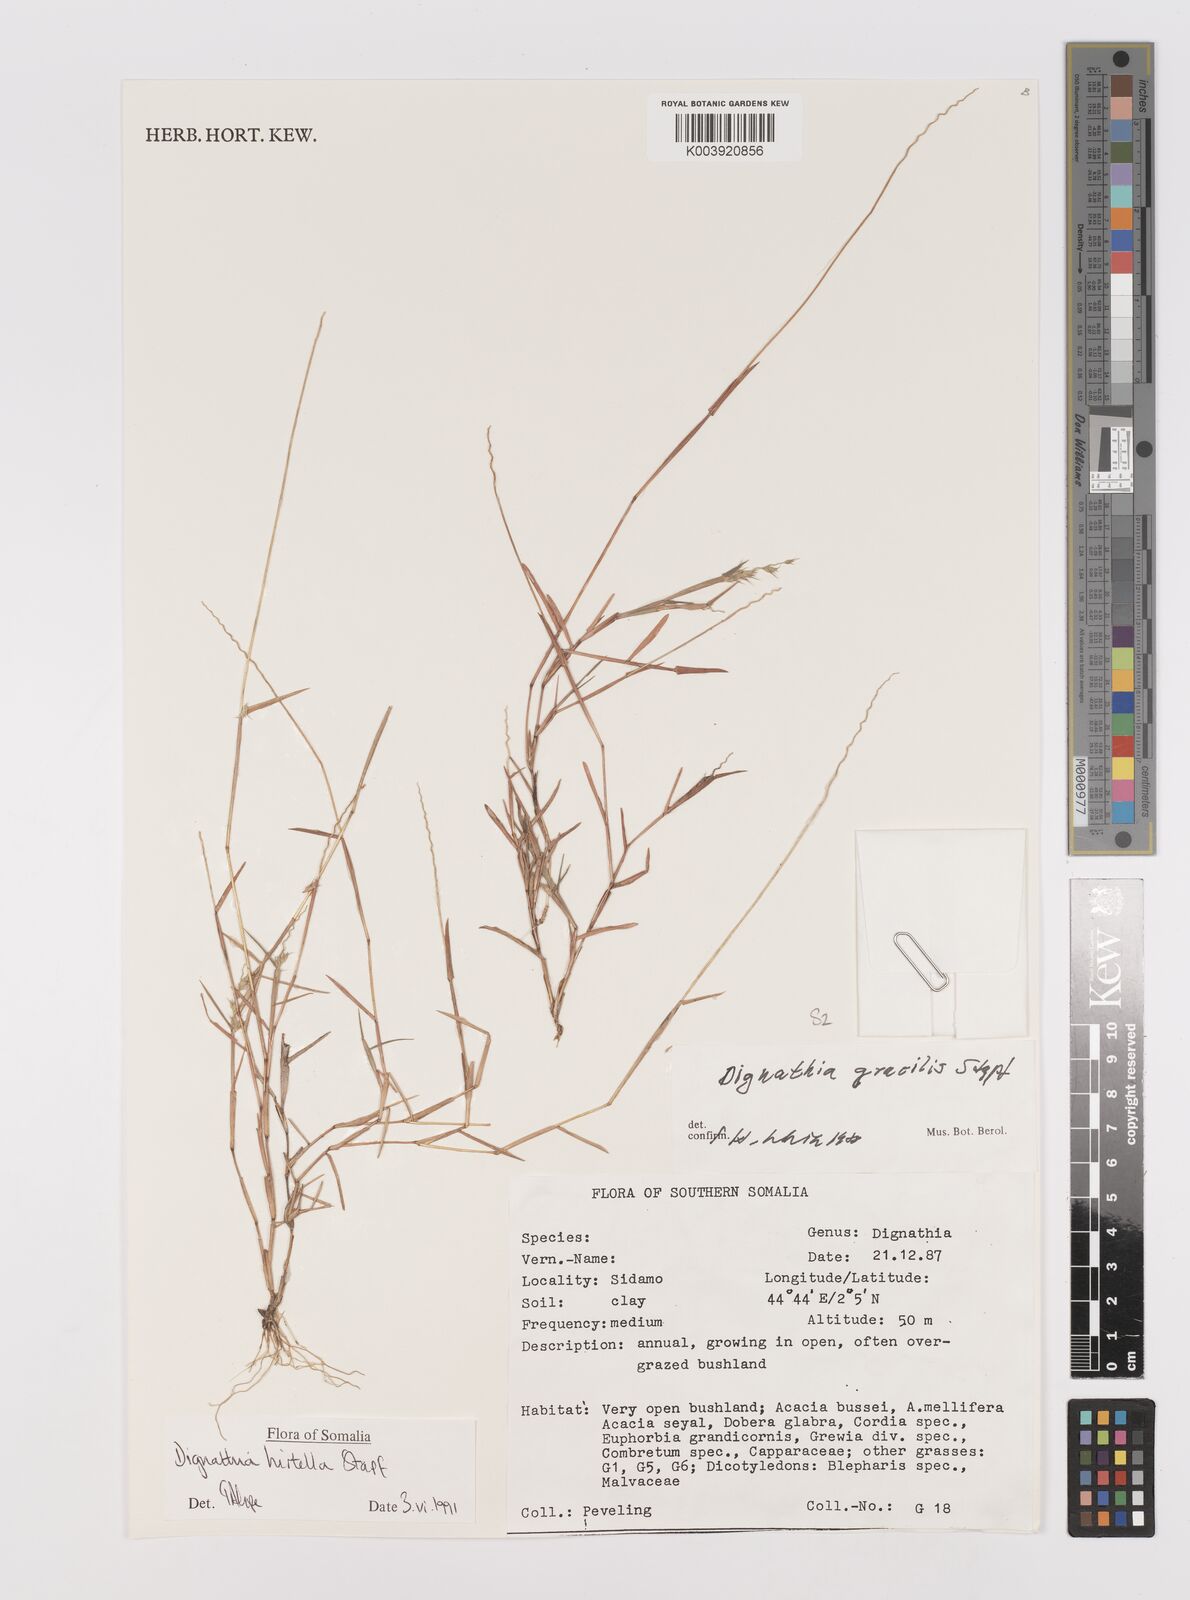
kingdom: Plantae
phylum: Tracheophyta
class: Liliopsida
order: Poales
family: Poaceae
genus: Dignathia
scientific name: Dignathia hirtella
